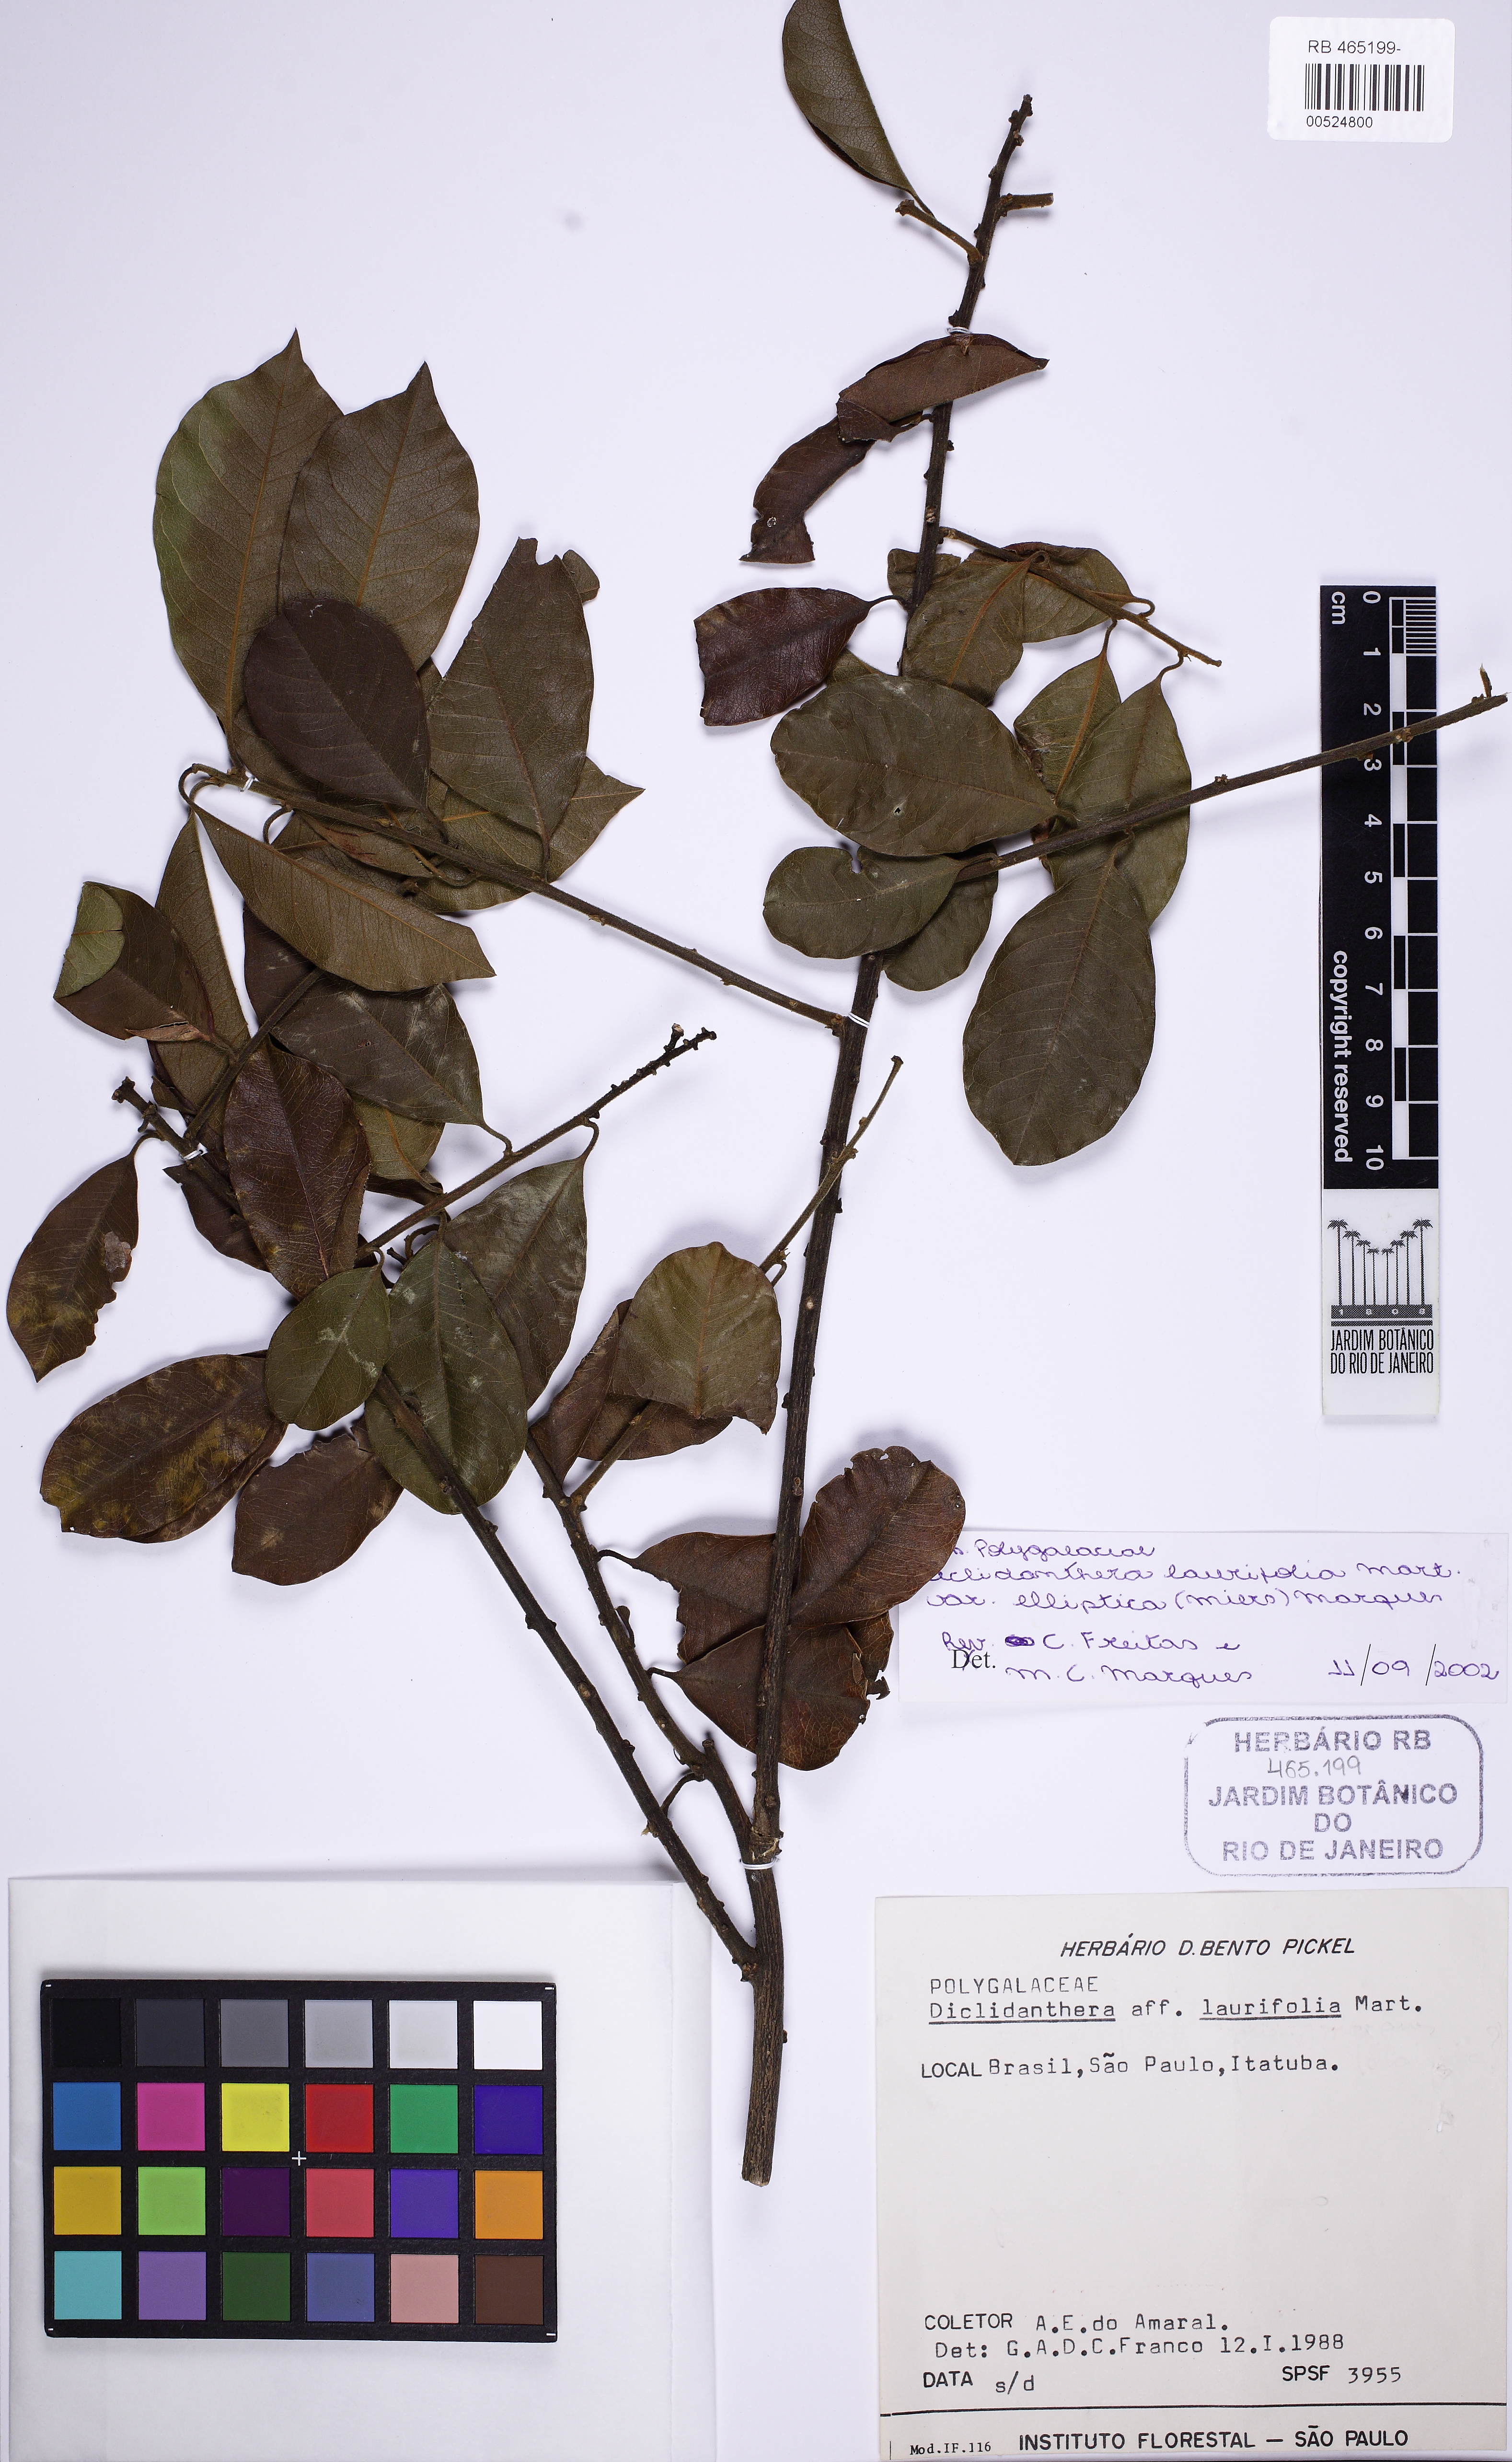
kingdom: Plantae
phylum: Tracheophyta
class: Magnoliopsida
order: Fabales
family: Polygalaceae
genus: Diclidanthera
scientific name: Diclidanthera laurifolia
